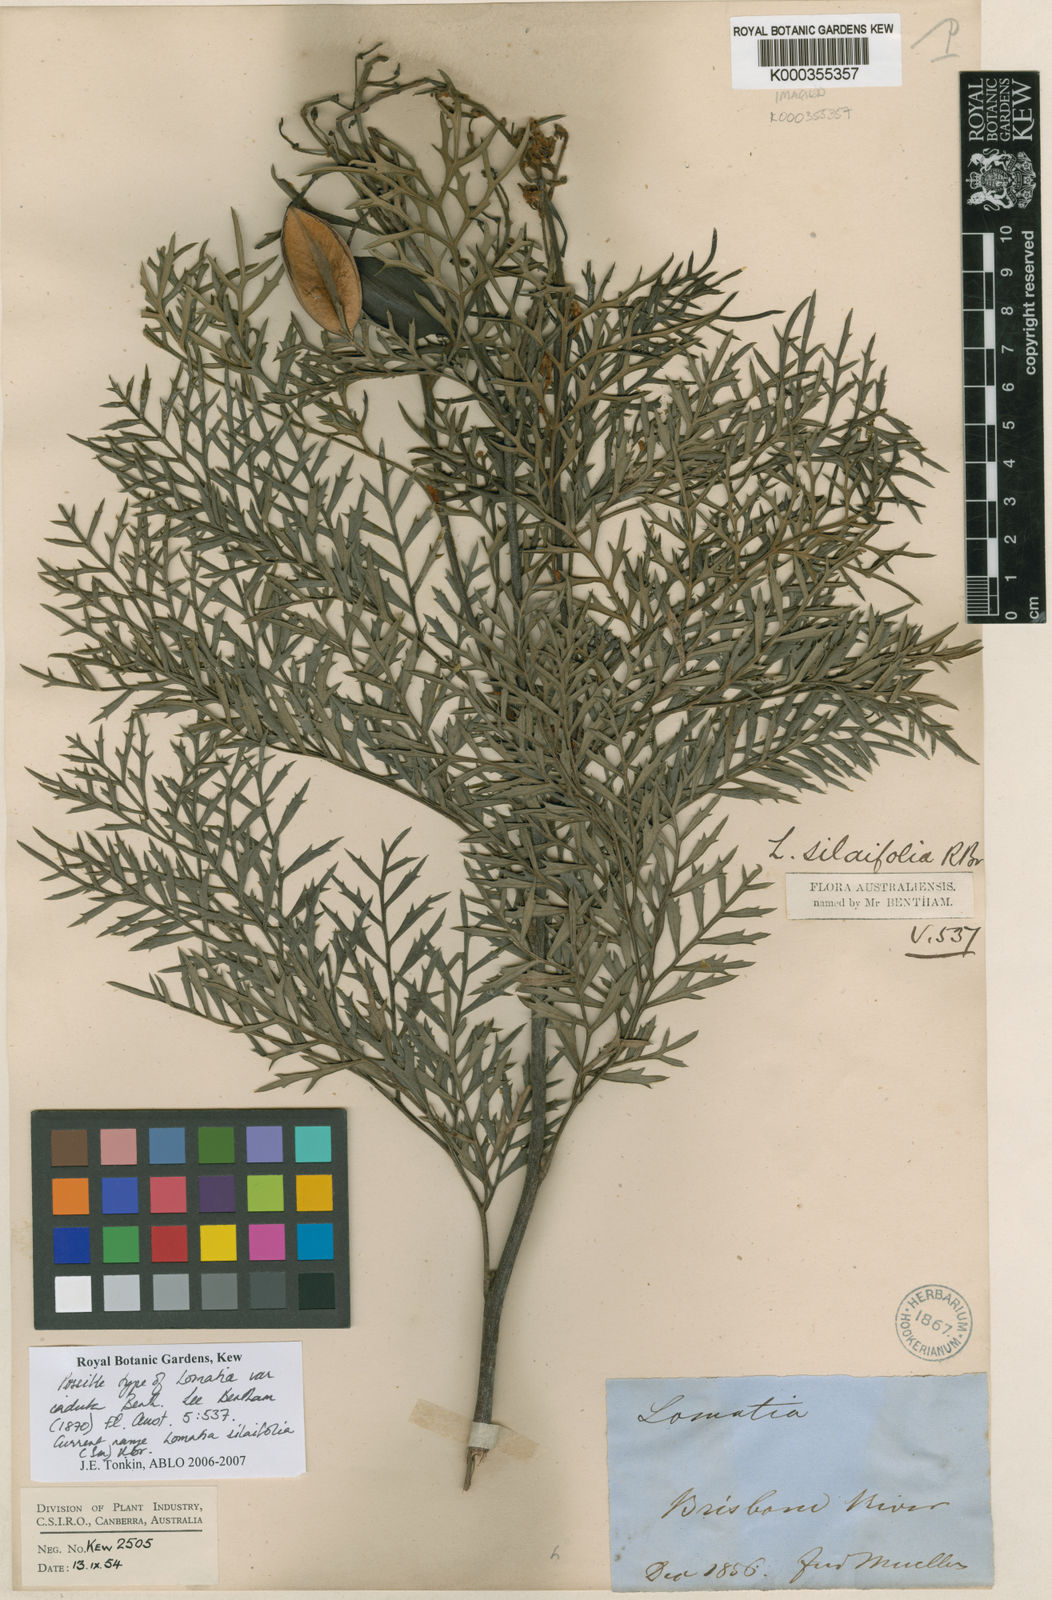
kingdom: Plantae
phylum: Tracheophyta
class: Magnoliopsida
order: Proteales
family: Proteaceae
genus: Lomatia
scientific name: Lomatia silaifolia
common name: Crinklebush
